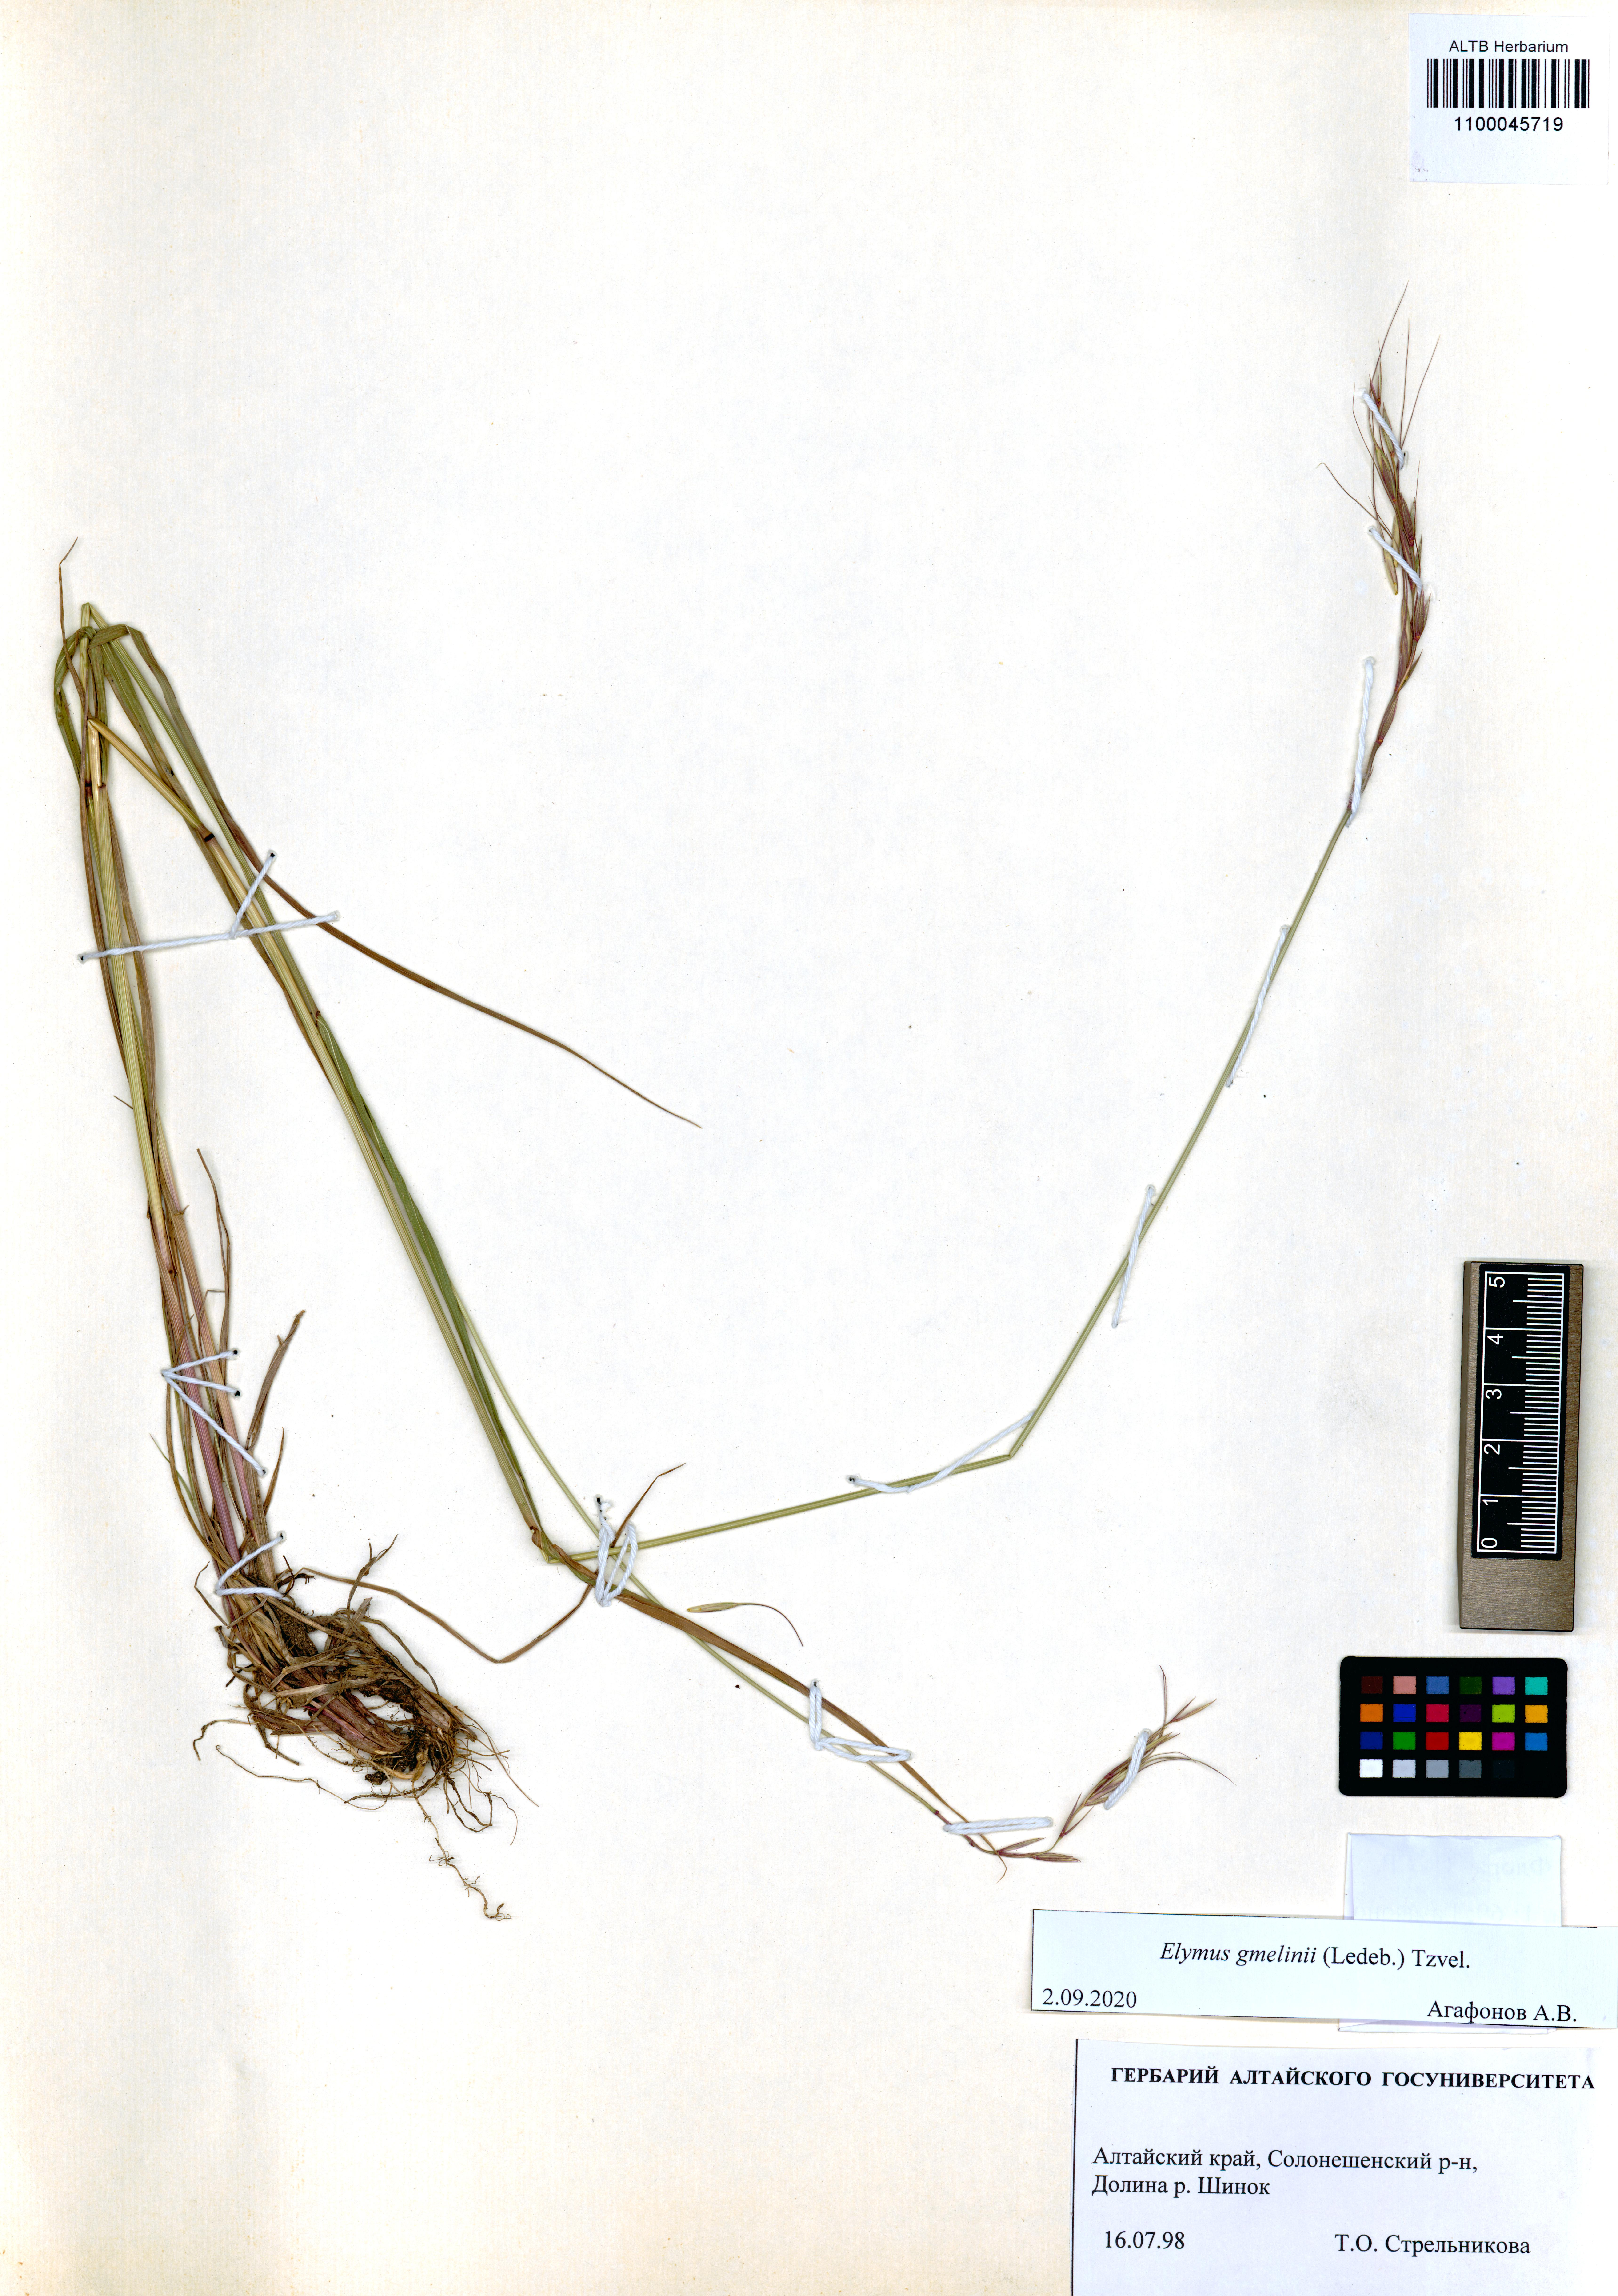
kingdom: Plantae
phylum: Tracheophyta
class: Liliopsida
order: Poales
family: Poaceae
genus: Elymus
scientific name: Elymus gmelinii
